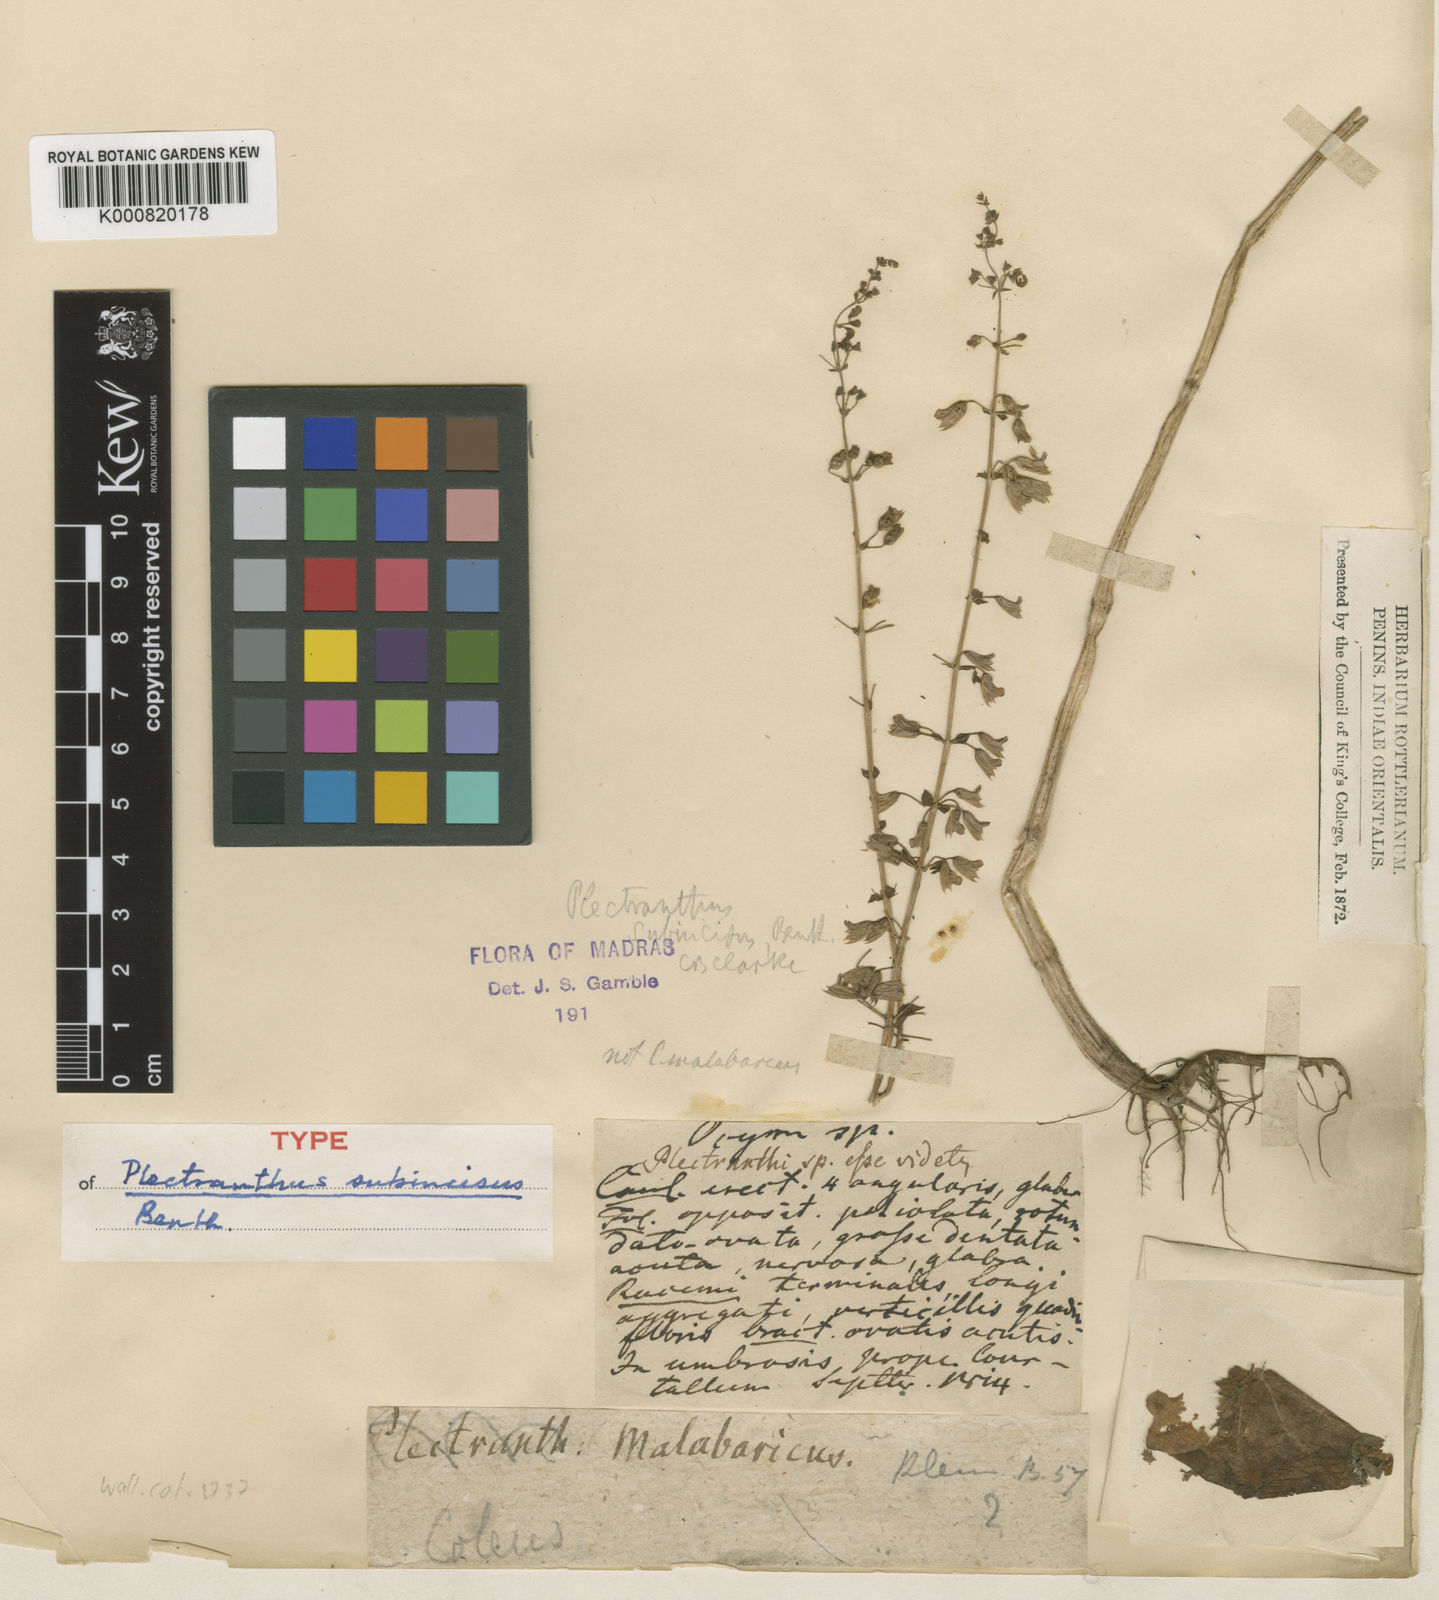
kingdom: Plantae
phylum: Tracheophyta
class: Magnoliopsida
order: Lamiales
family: Lamiaceae
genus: Equilabium
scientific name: Equilabium subincisum
